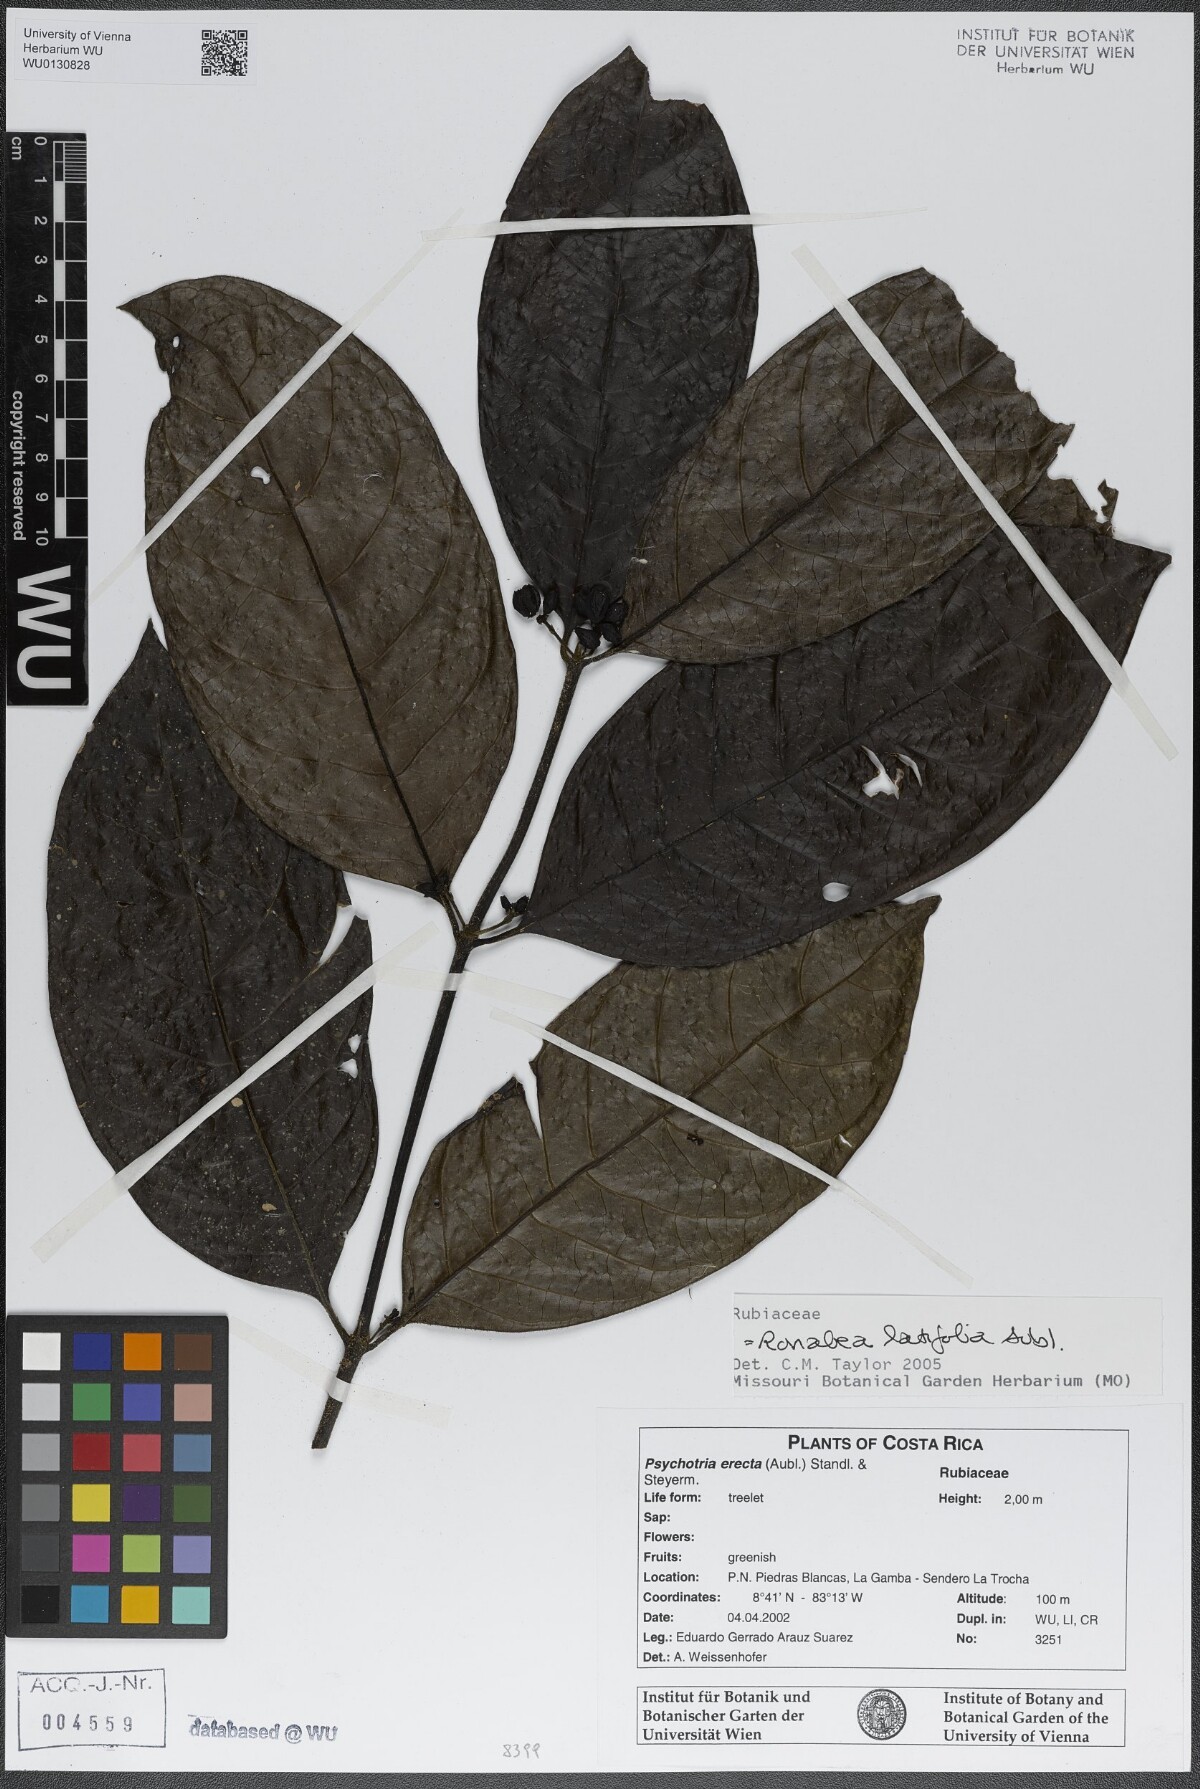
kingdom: Plantae
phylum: Tracheophyta
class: Magnoliopsida
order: Gentianales
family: Rubiaceae
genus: Ronabea
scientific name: Ronabea latifolia
